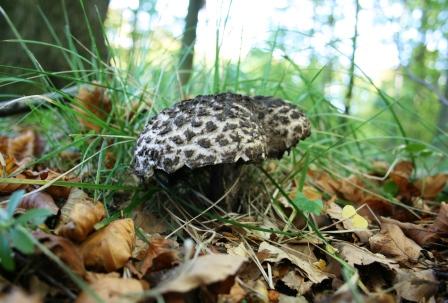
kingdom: Fungi
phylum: Basidiomycota
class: Agaricomycetes
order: Boletales
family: Boletaceae
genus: Strobilomyces
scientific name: Strobilomyces strobilaceus
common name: koglerørhat
